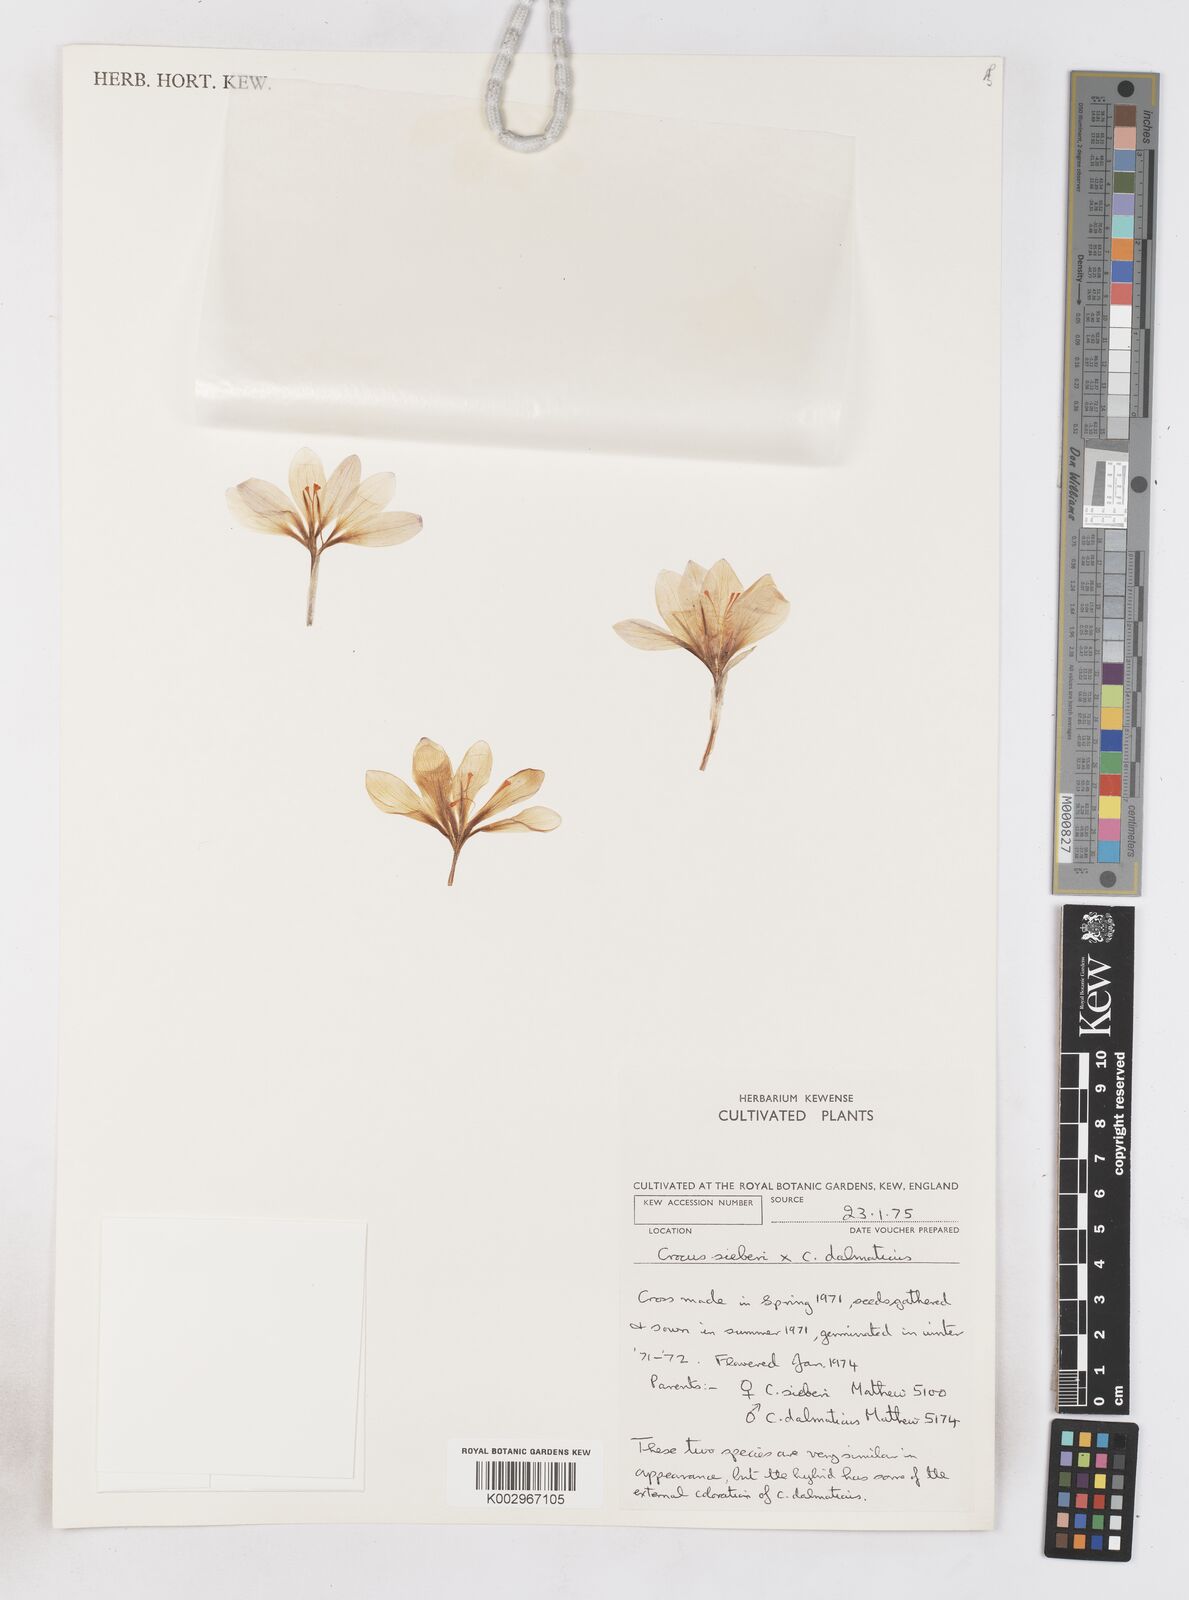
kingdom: Plantae
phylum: Tracheophyta
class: Liliopsida
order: Asparagales
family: Iridaceae
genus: Crocus
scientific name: Crocus sieberi
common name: Sieber's crocus
